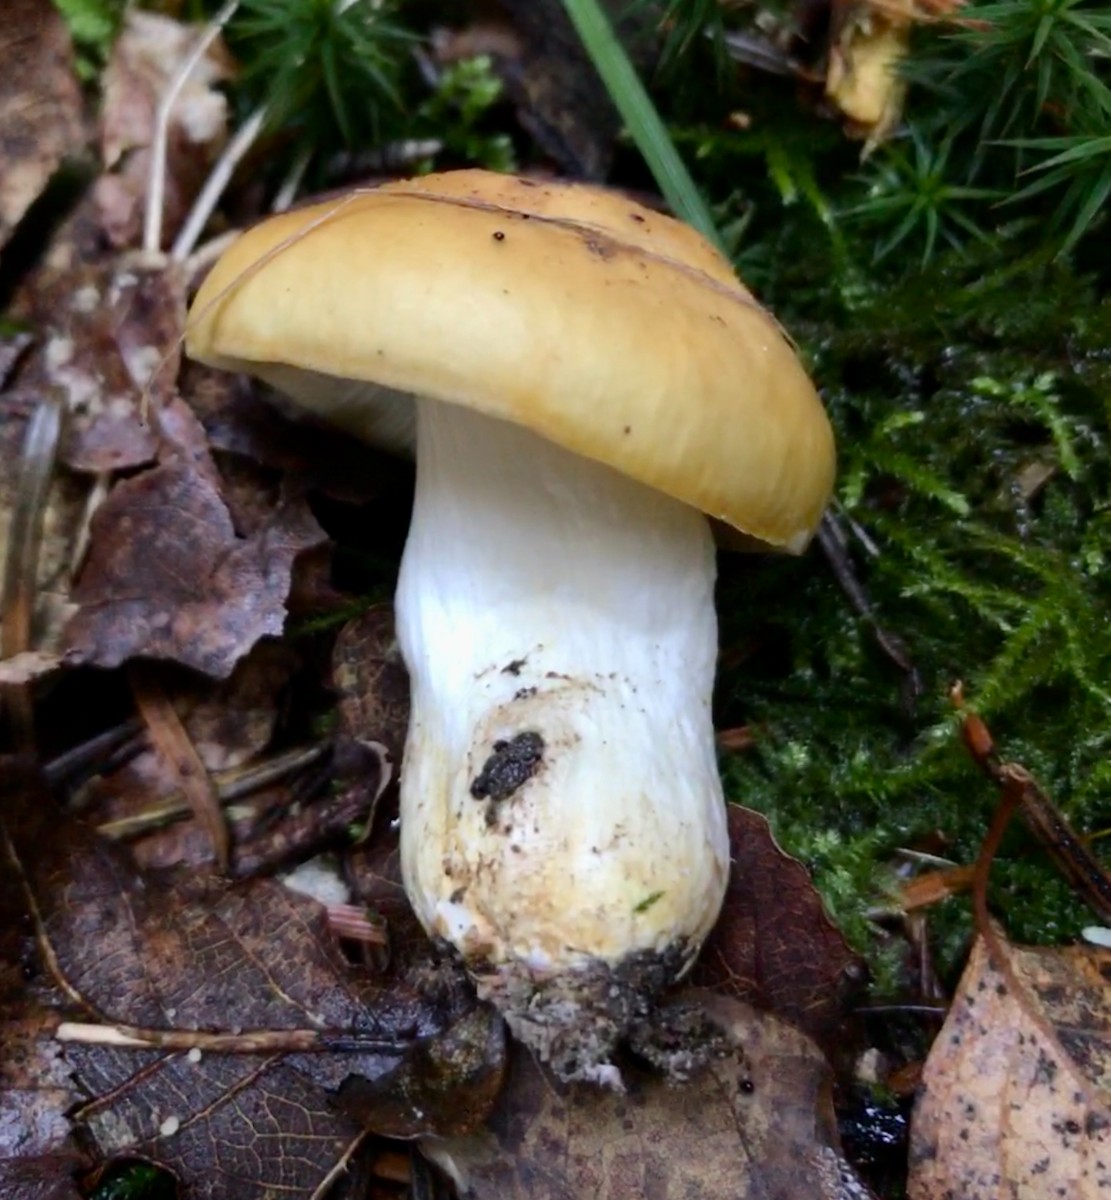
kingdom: Fungi
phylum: Basidiomycota
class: Agaricomycetes
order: Russulales
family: Russulaceae
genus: Russula
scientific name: Russula ochroleuca
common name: okkergul skørhat
